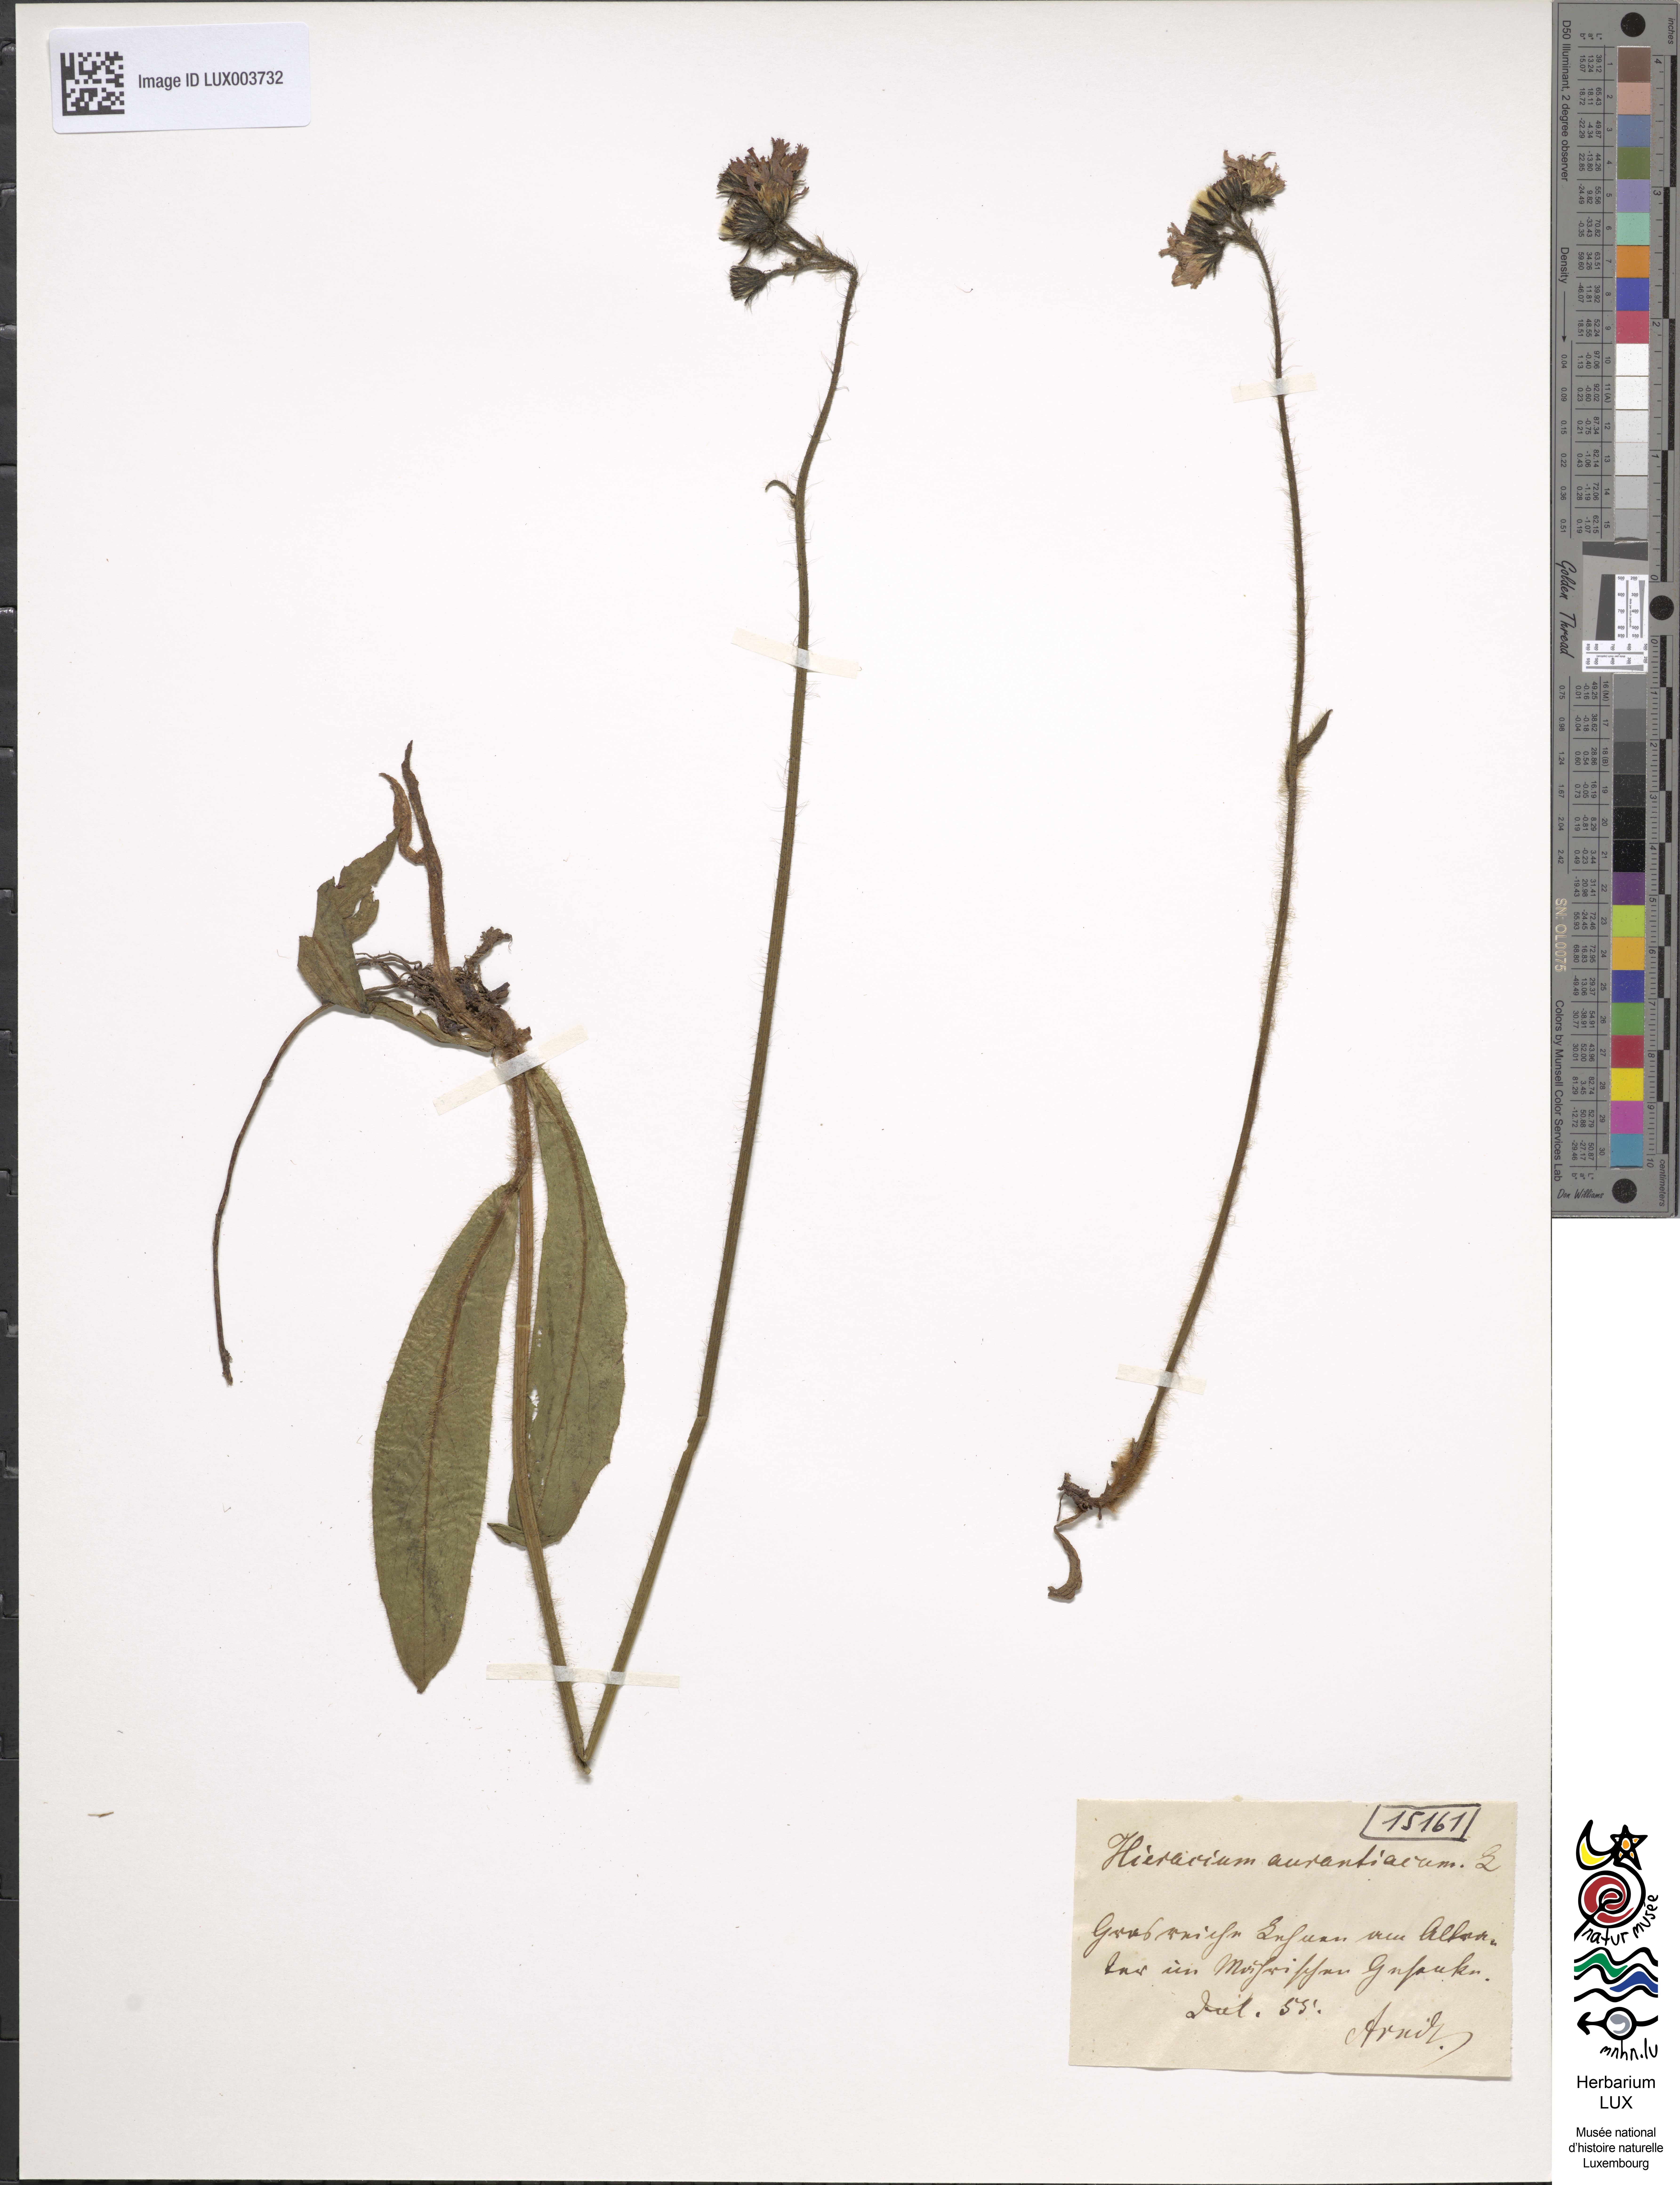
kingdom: Plantae
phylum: Tracheophyta
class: Magnoliopsida
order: Asterales
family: Asteraceae
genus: Pilosella
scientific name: Pilosella aurantiaca
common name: Fox-and-cubs
